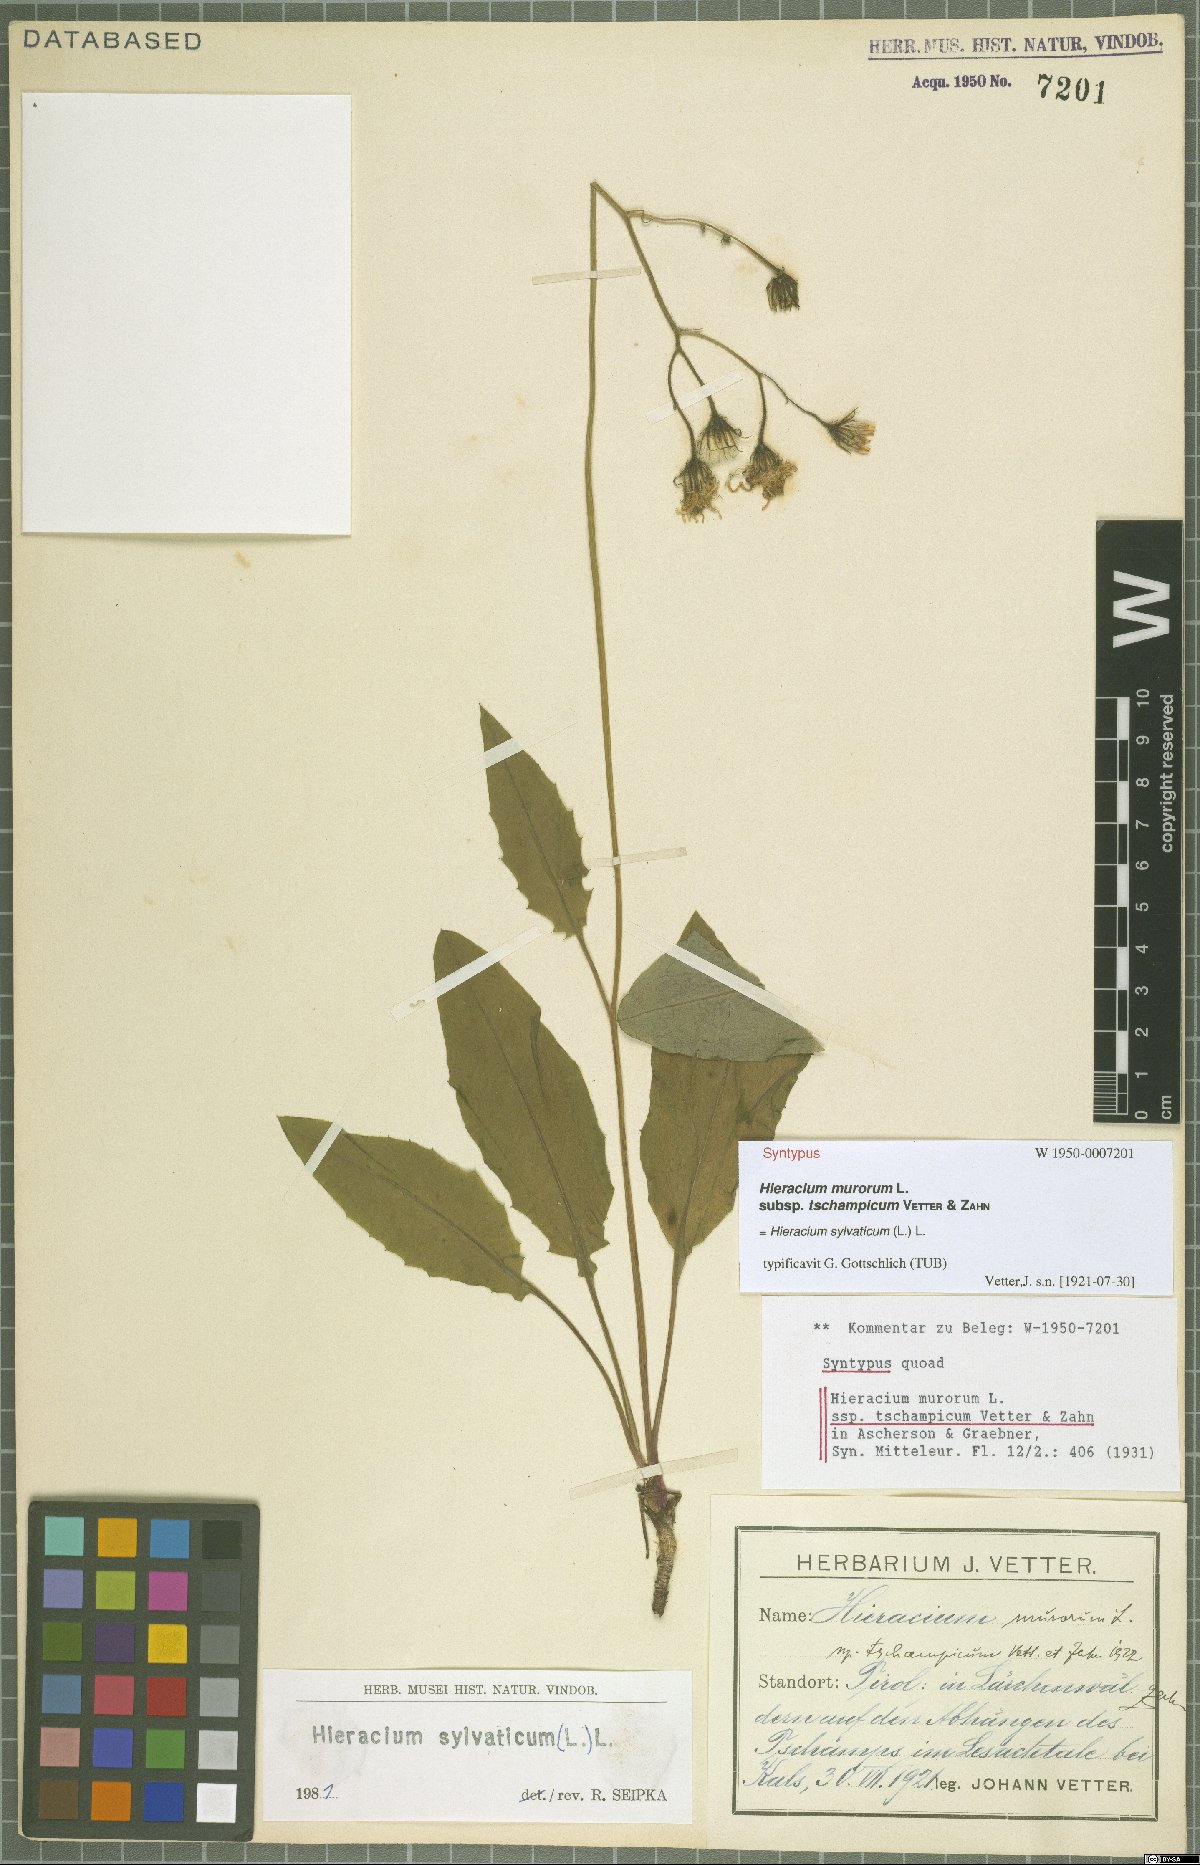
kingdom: Plantae
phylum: Tracheophyta
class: Magnoliopsida
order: Asterales
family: Asteraceae
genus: Hieracium
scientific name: Hieracium murorum
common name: Wall hawkweed
